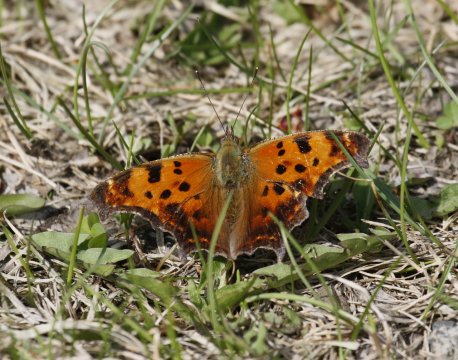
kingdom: Animalia
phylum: Arthropoda
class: Insecta
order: Lepidoptera
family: Nymphalidae
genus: Polygonia
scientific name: Polygonia comma
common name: Eastern Comma
